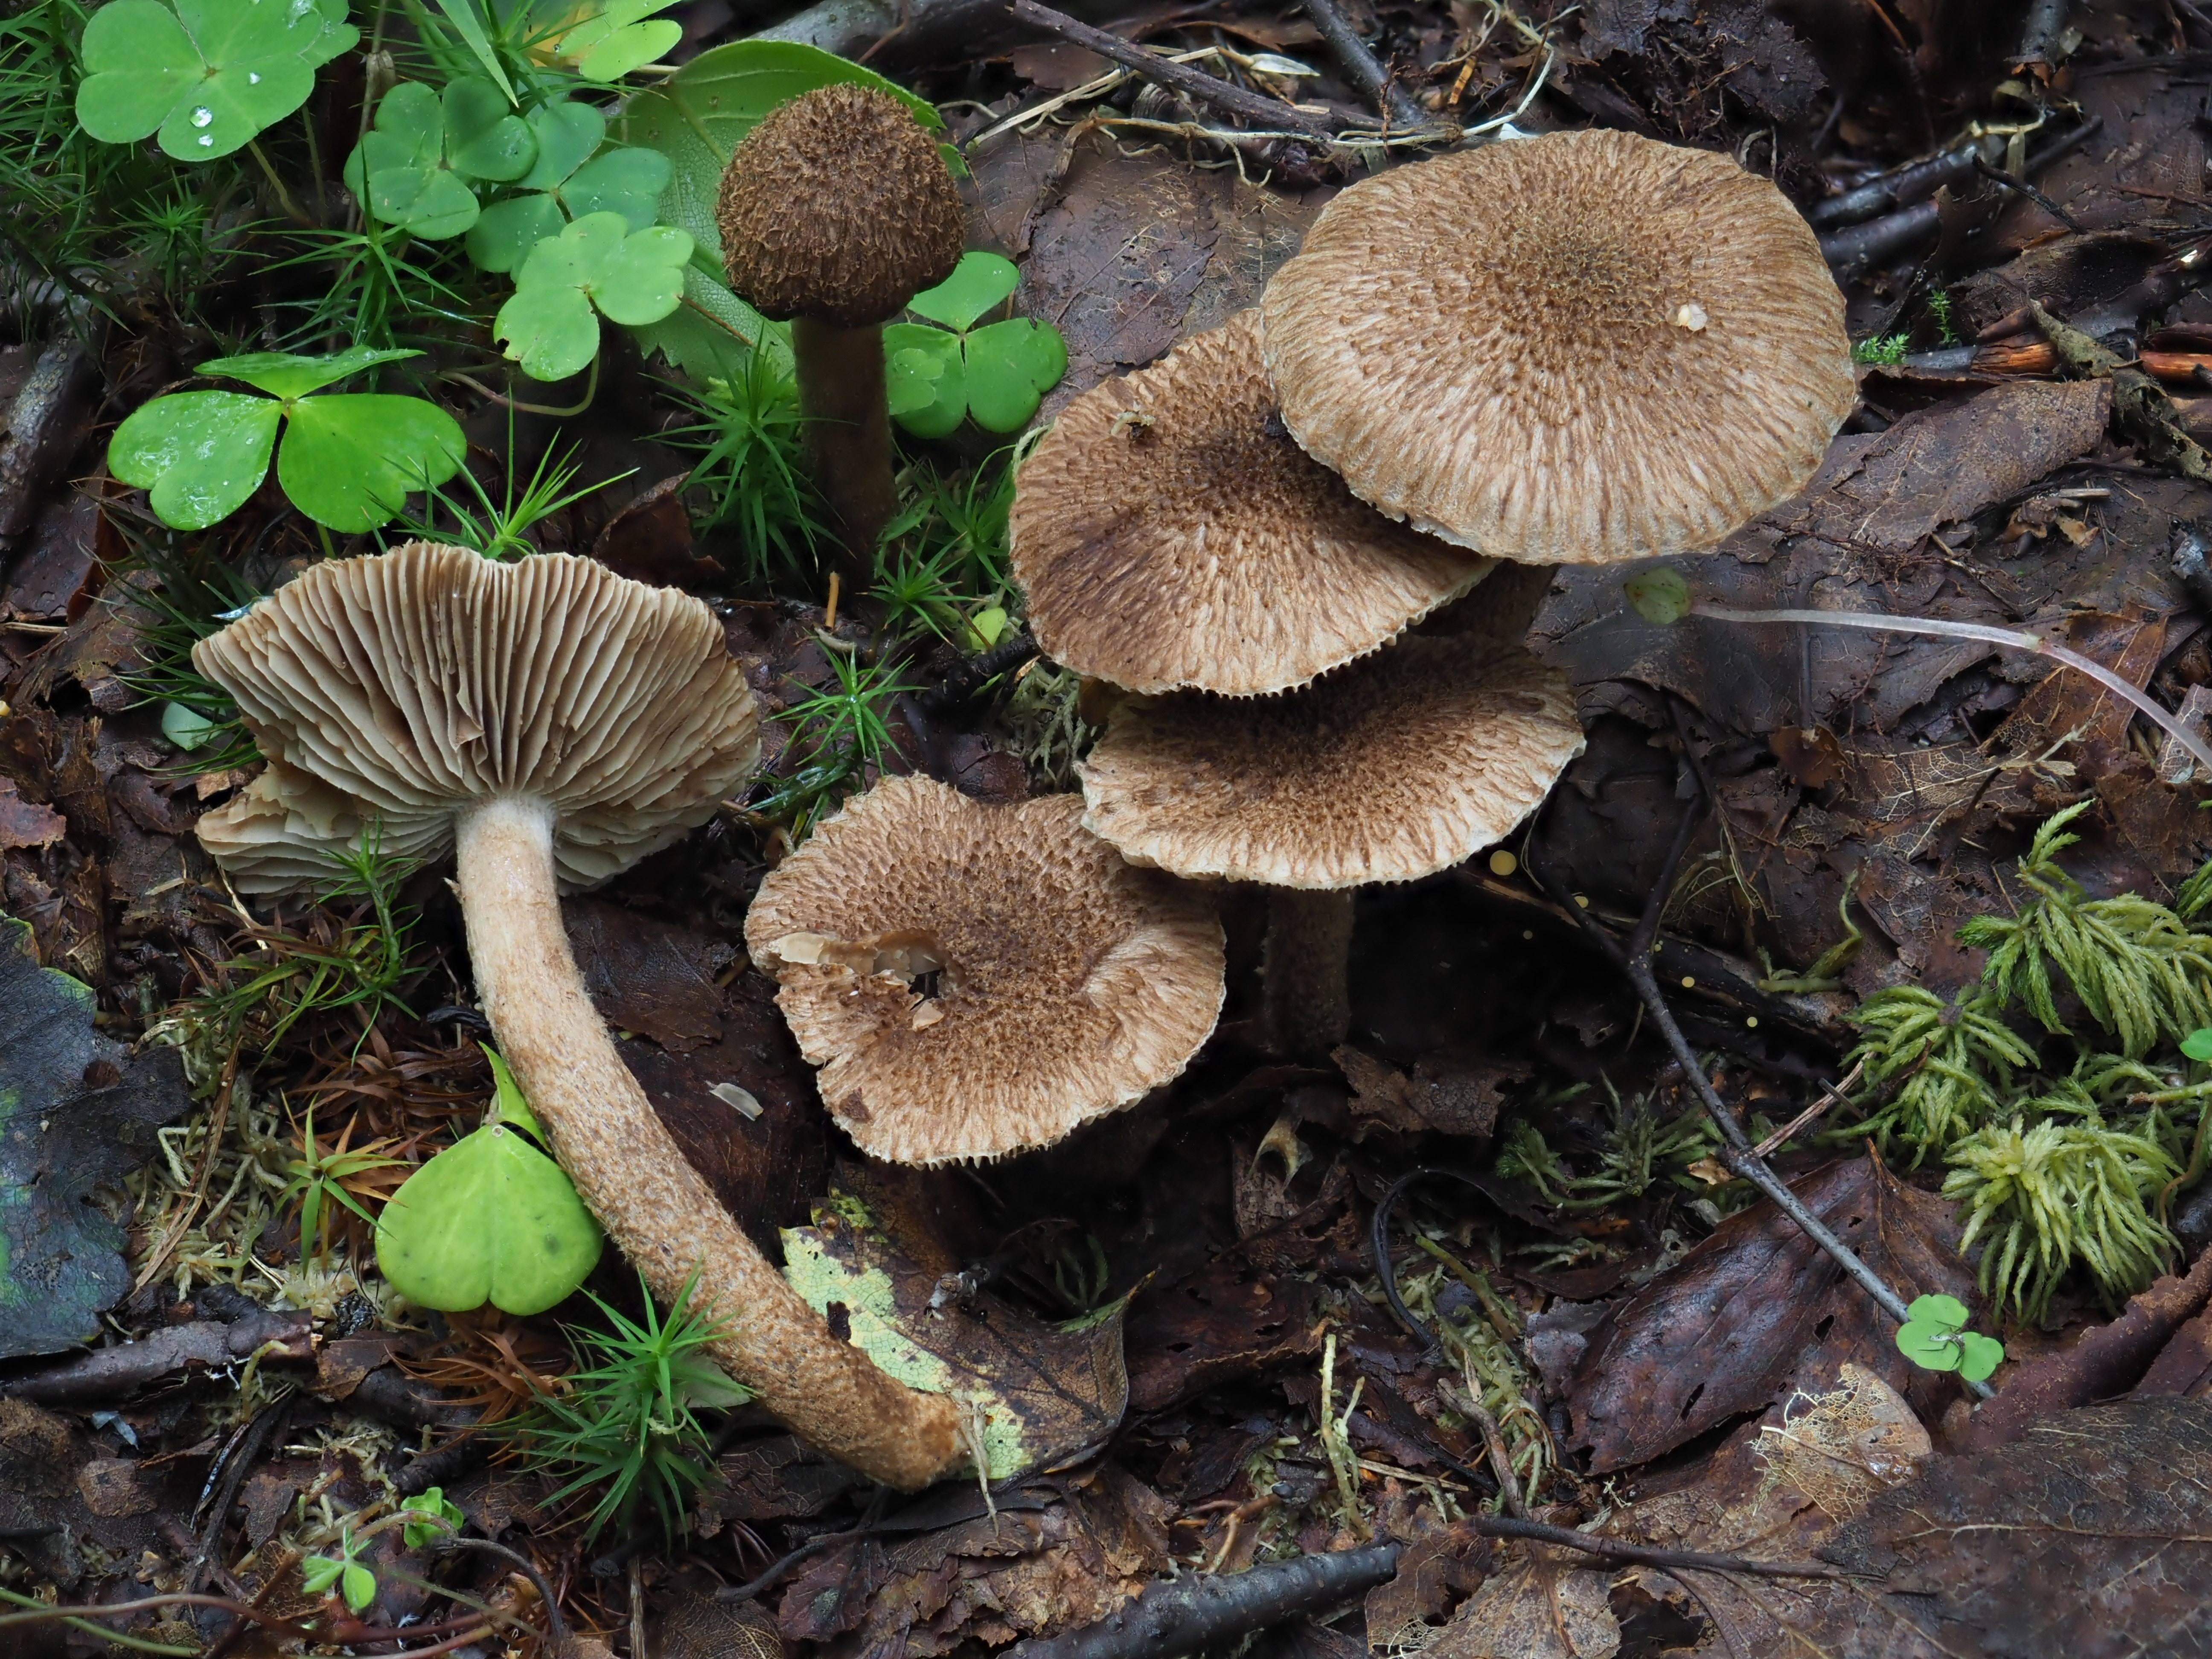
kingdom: Fungi
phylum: Basidiomycota
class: Agaricomycetes
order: Agaricales
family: Inocybaceae
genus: Inocybe
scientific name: Inocybe stellatospora
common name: Woolly fibrecap
